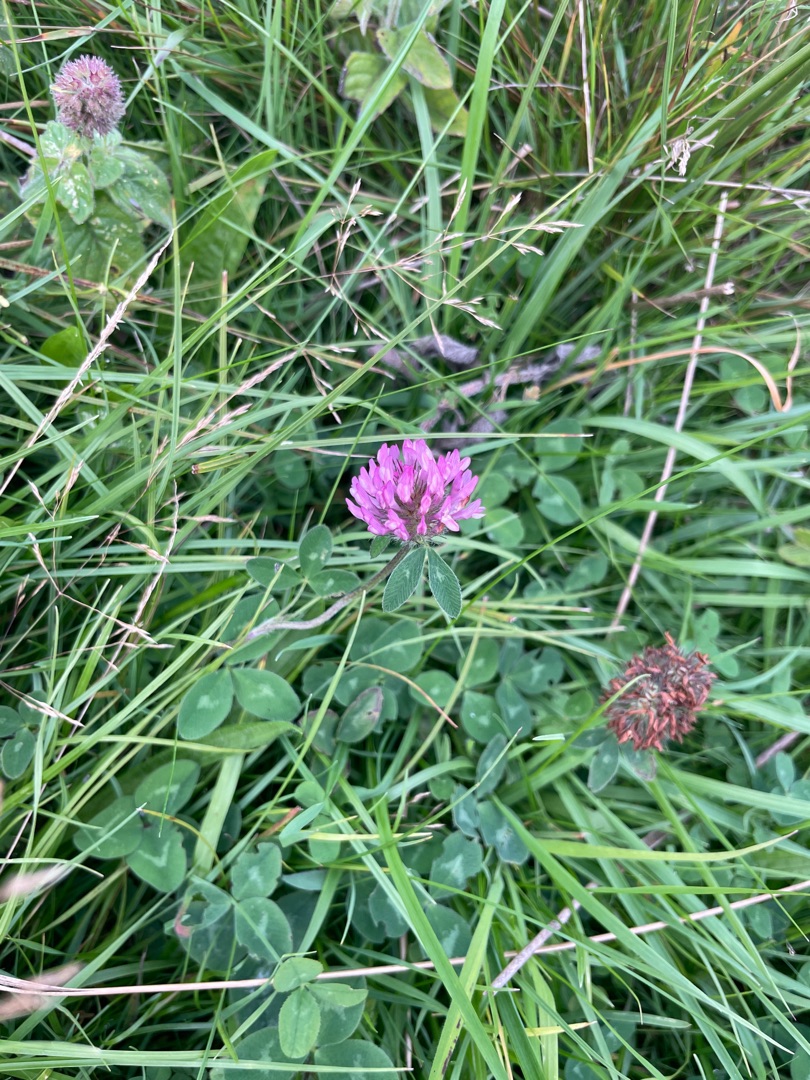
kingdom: Plantae
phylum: Tracheophyta
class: Magnoliopsida
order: Fabales
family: Fabaceae
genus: Trifolium
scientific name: Trifolium pratense
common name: Rød-kløver
